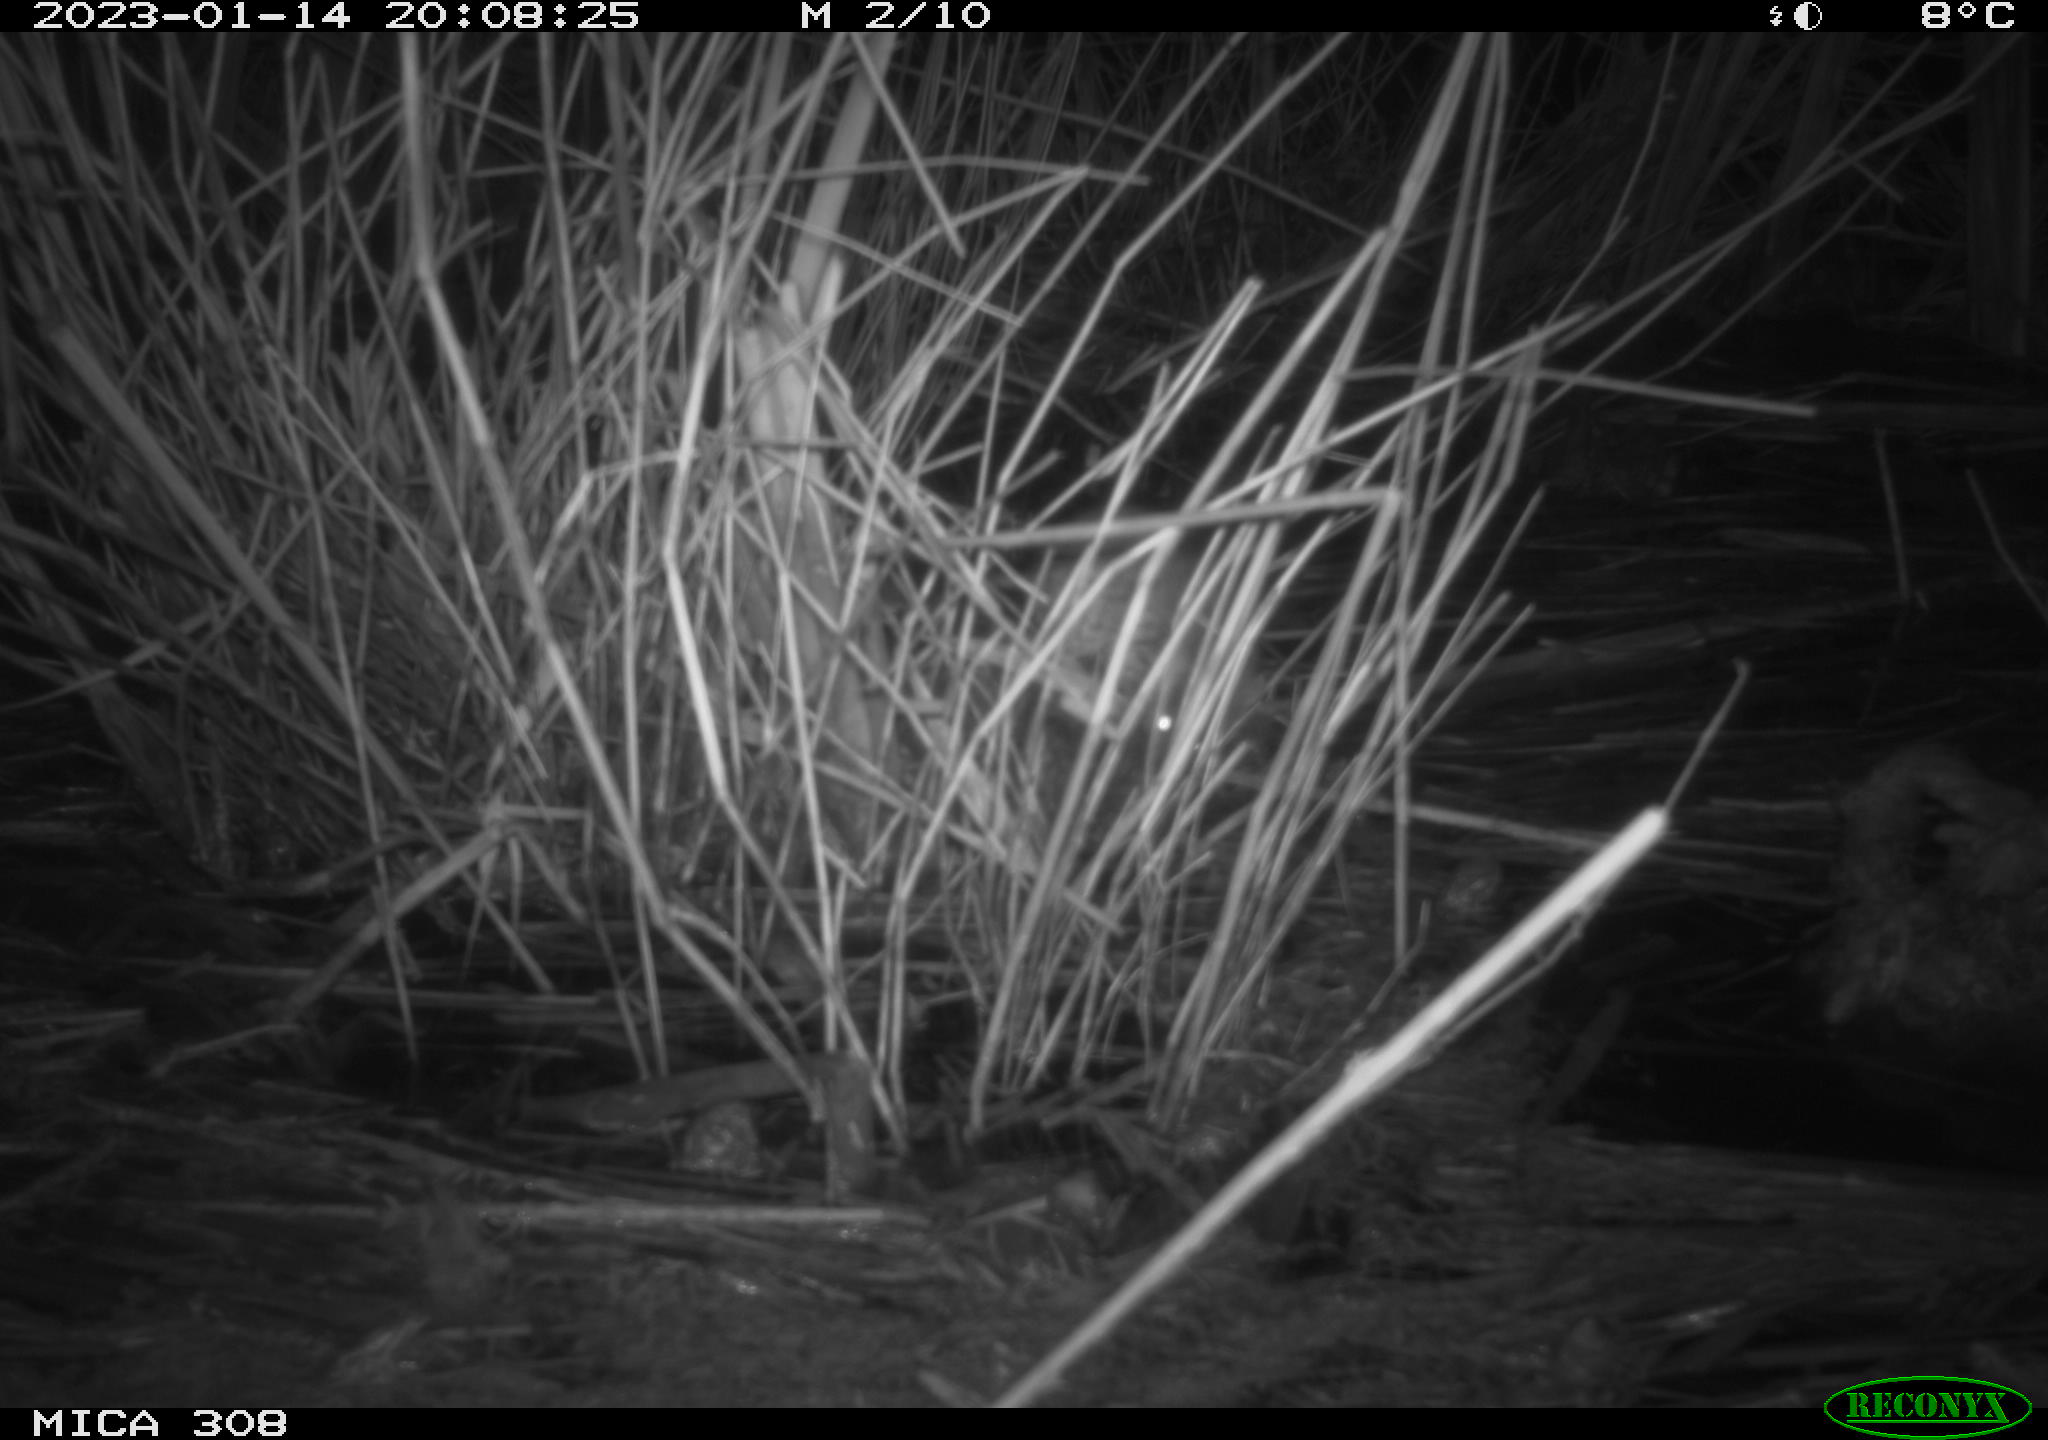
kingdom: Animalia
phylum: Chordata
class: Mammalia
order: Rodentia
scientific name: Rodentia
